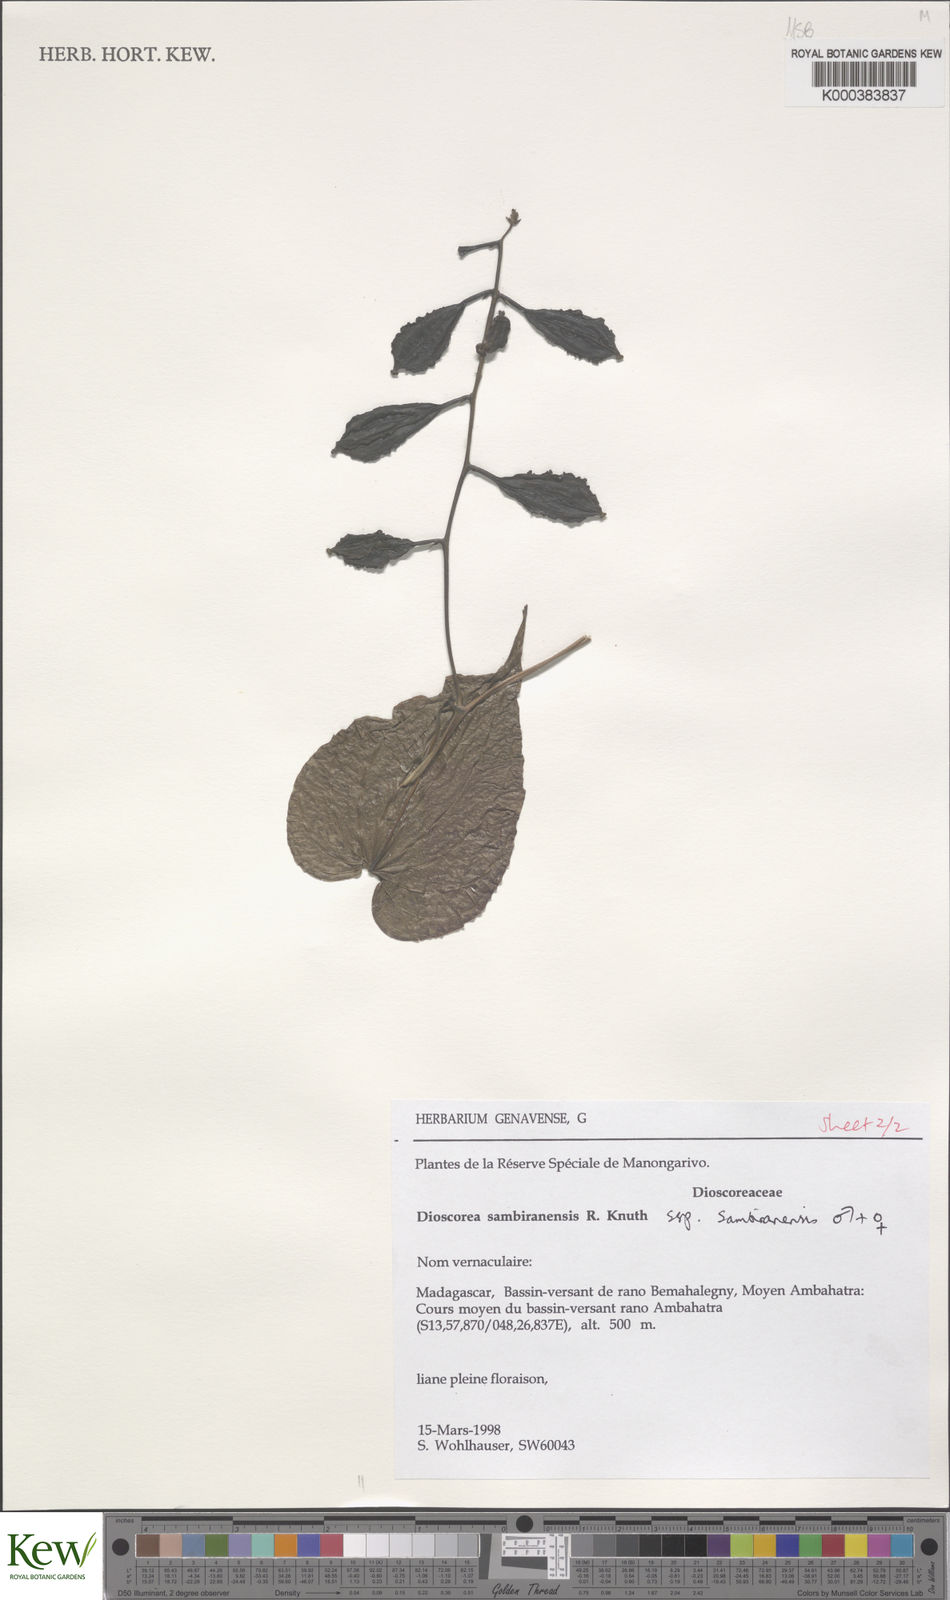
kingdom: Plantae
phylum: Tracheophyta
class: Liliopsida
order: Dioscoreales
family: Dioscoreaceae
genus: Dioscorea
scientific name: Dioscorea sambiranensis
